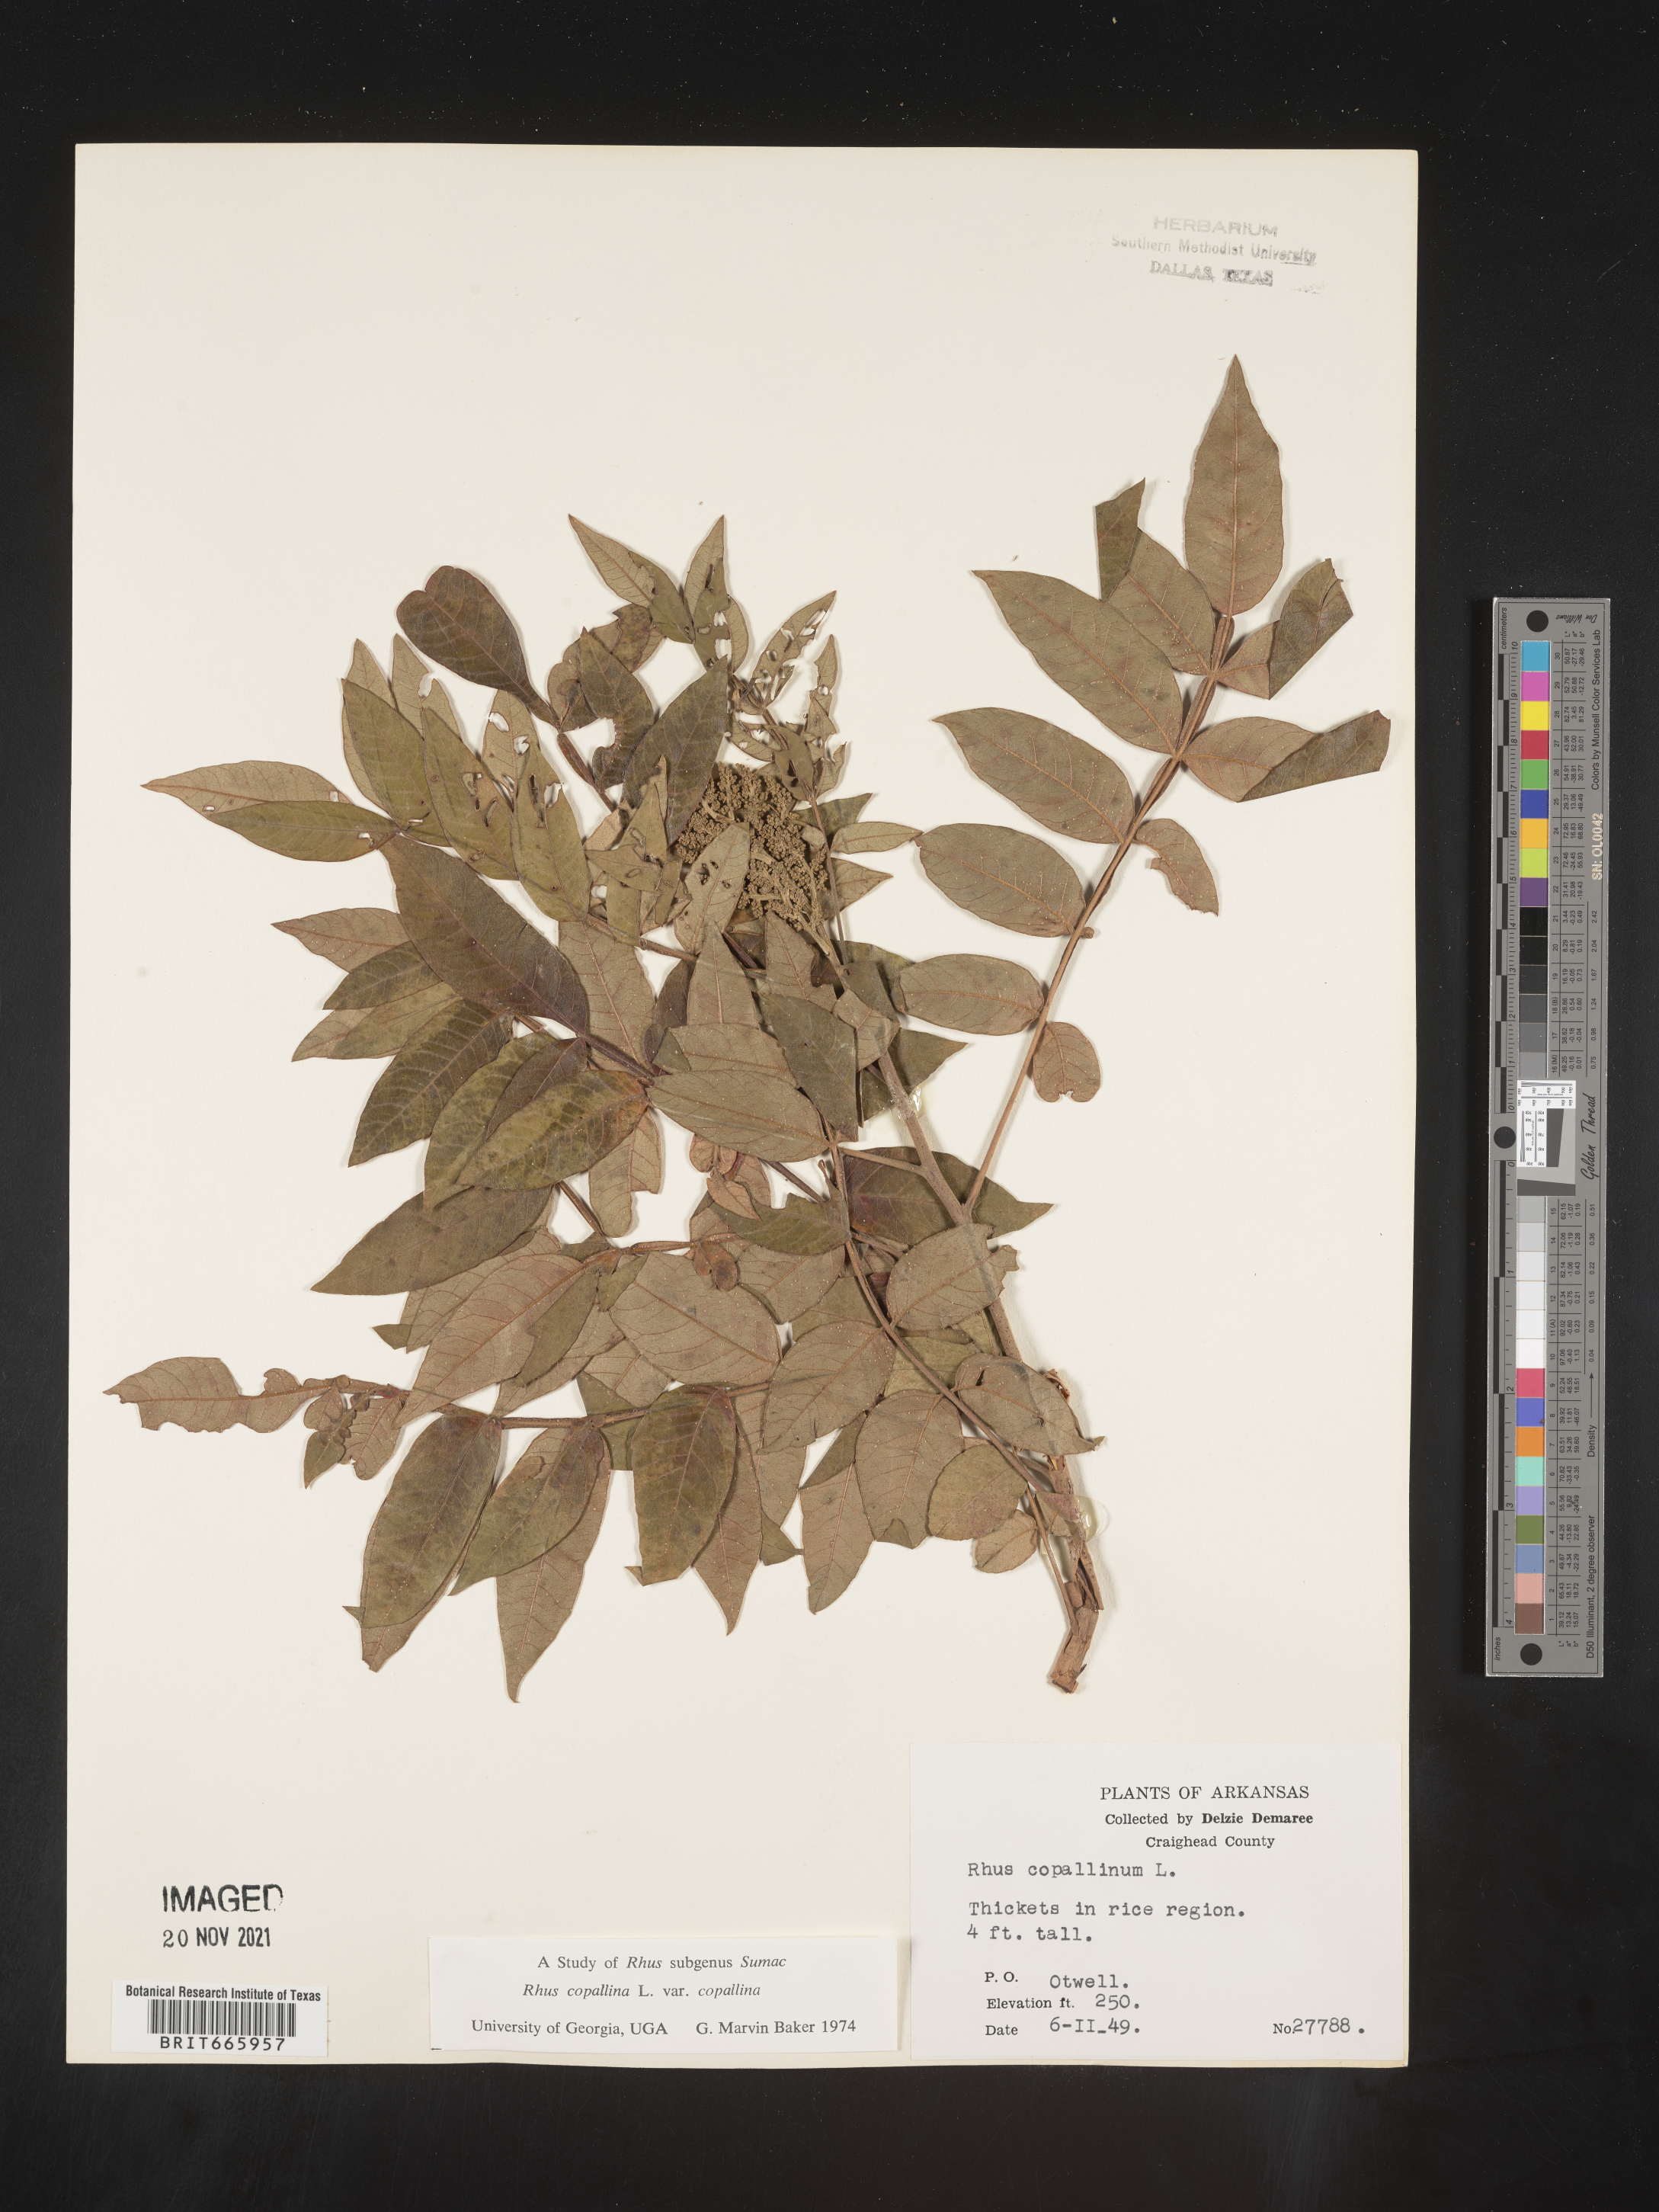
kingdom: Plantae
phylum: Tracheophyta
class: Magnoliopsida
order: Sapindales
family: Anacardiaceae
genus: Rhus
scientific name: Rhus copallina
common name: Shining sumac
